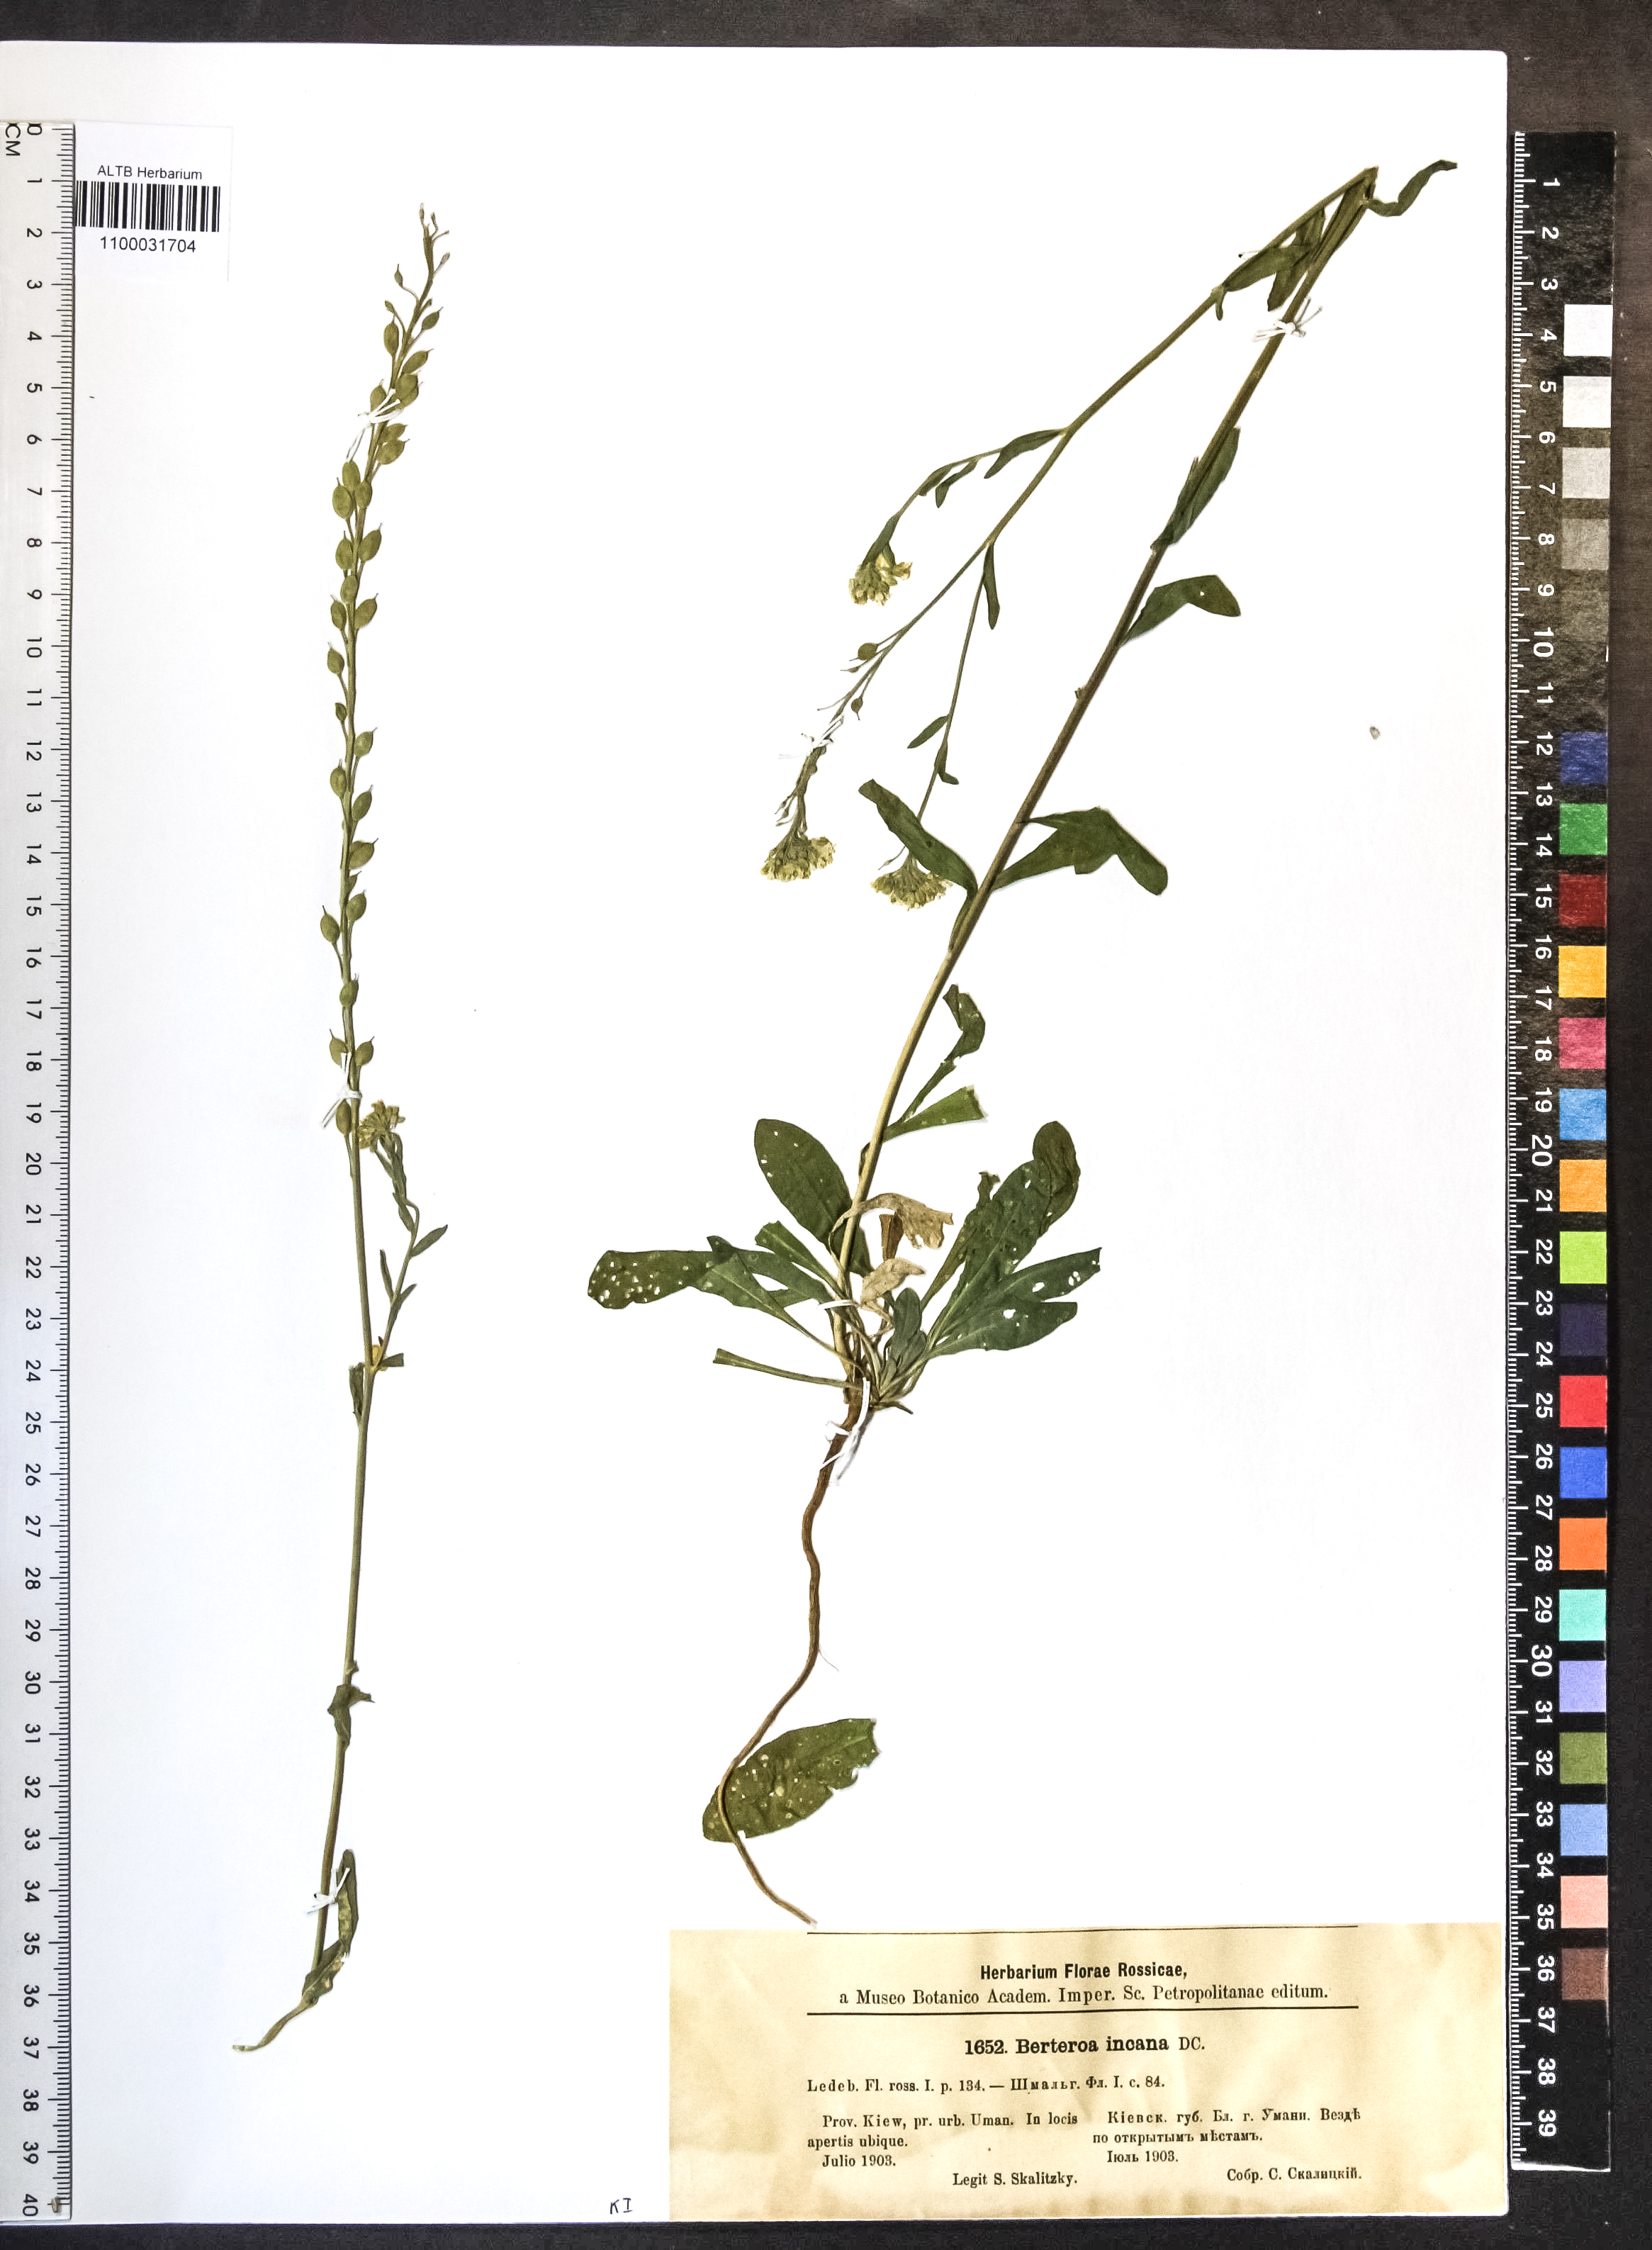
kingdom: Plantae
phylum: Tracheophyta
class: Magnoliopsida
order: Brassicales
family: Brassicaceae
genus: Berteroa
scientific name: Berteroa incana
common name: Hoary alison
